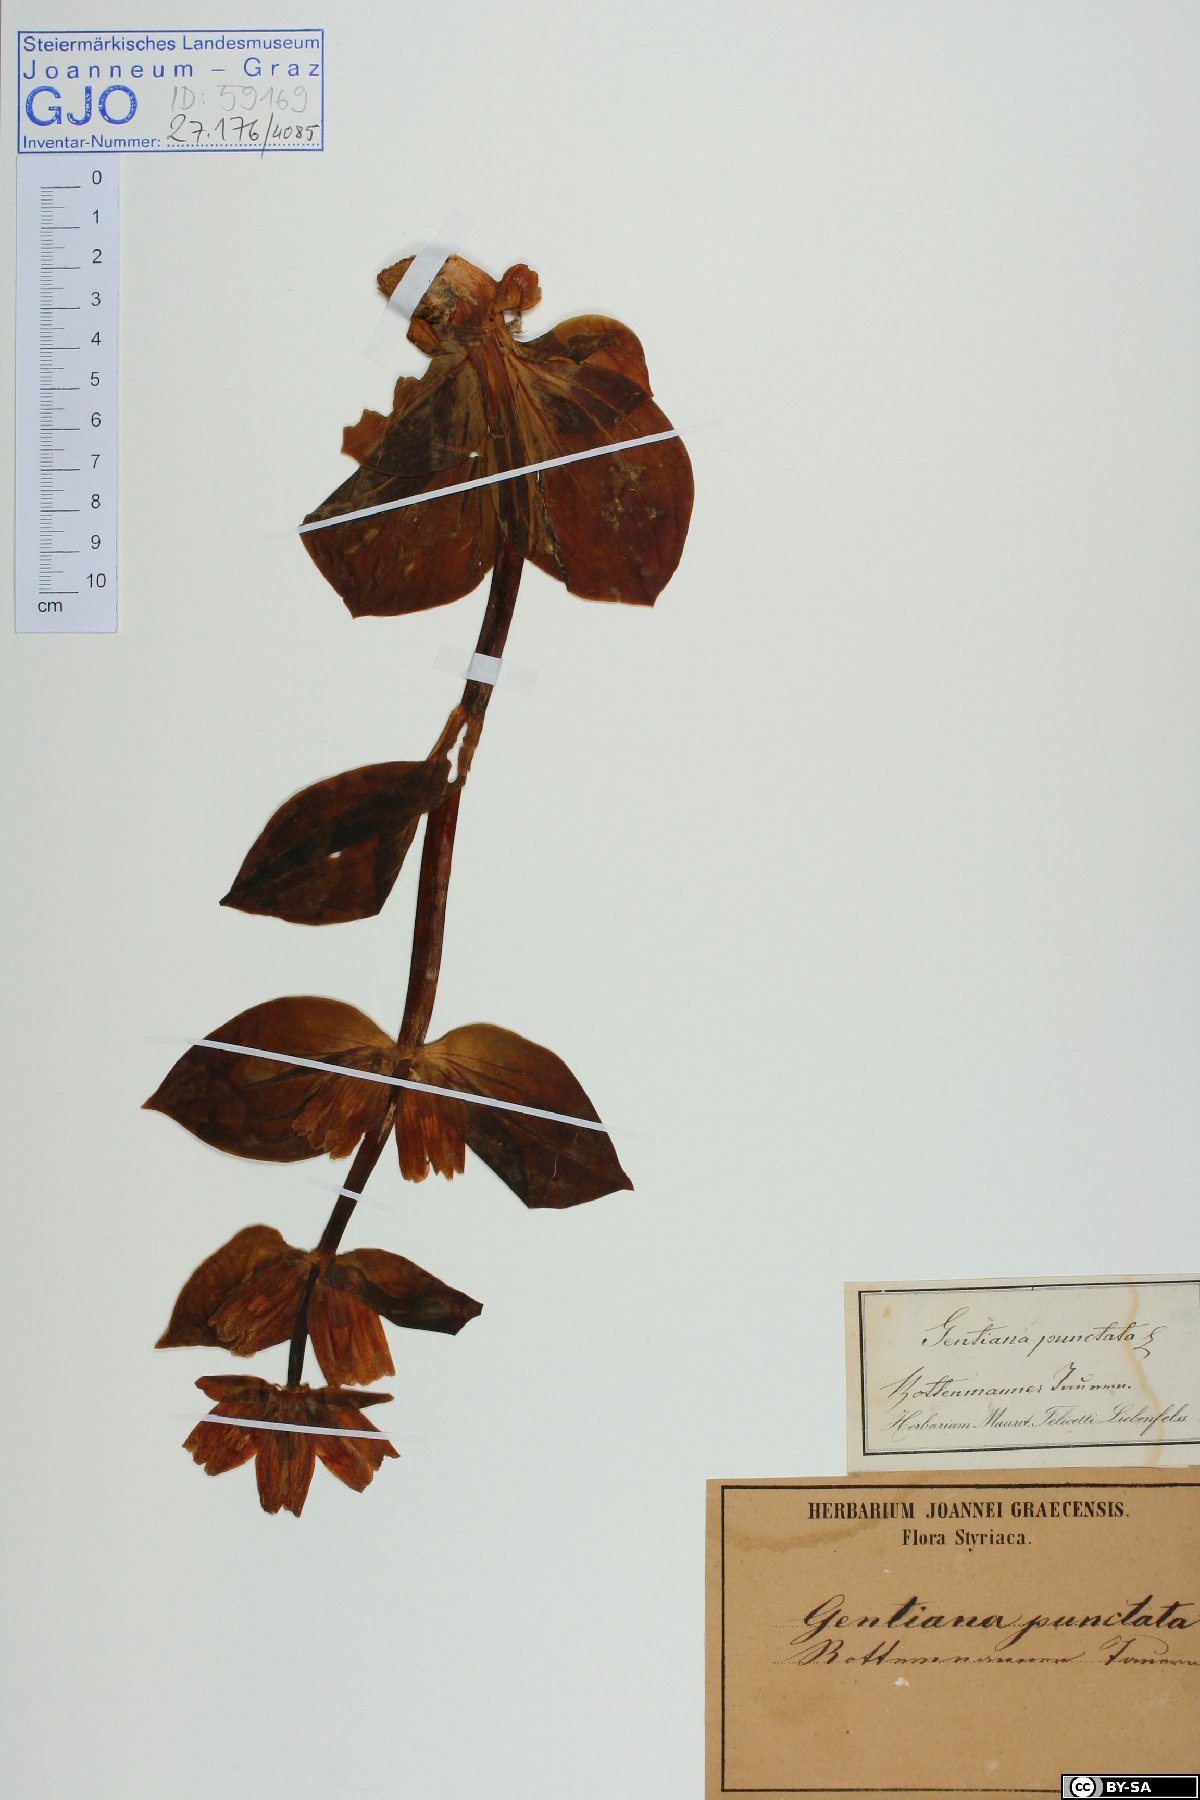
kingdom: Plantae
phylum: Tracheophyta
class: Magnoliopsida
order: Gentianales
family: Gentianaceae
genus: Gentiana
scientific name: Gentiana punctata
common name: Spotted gentian
